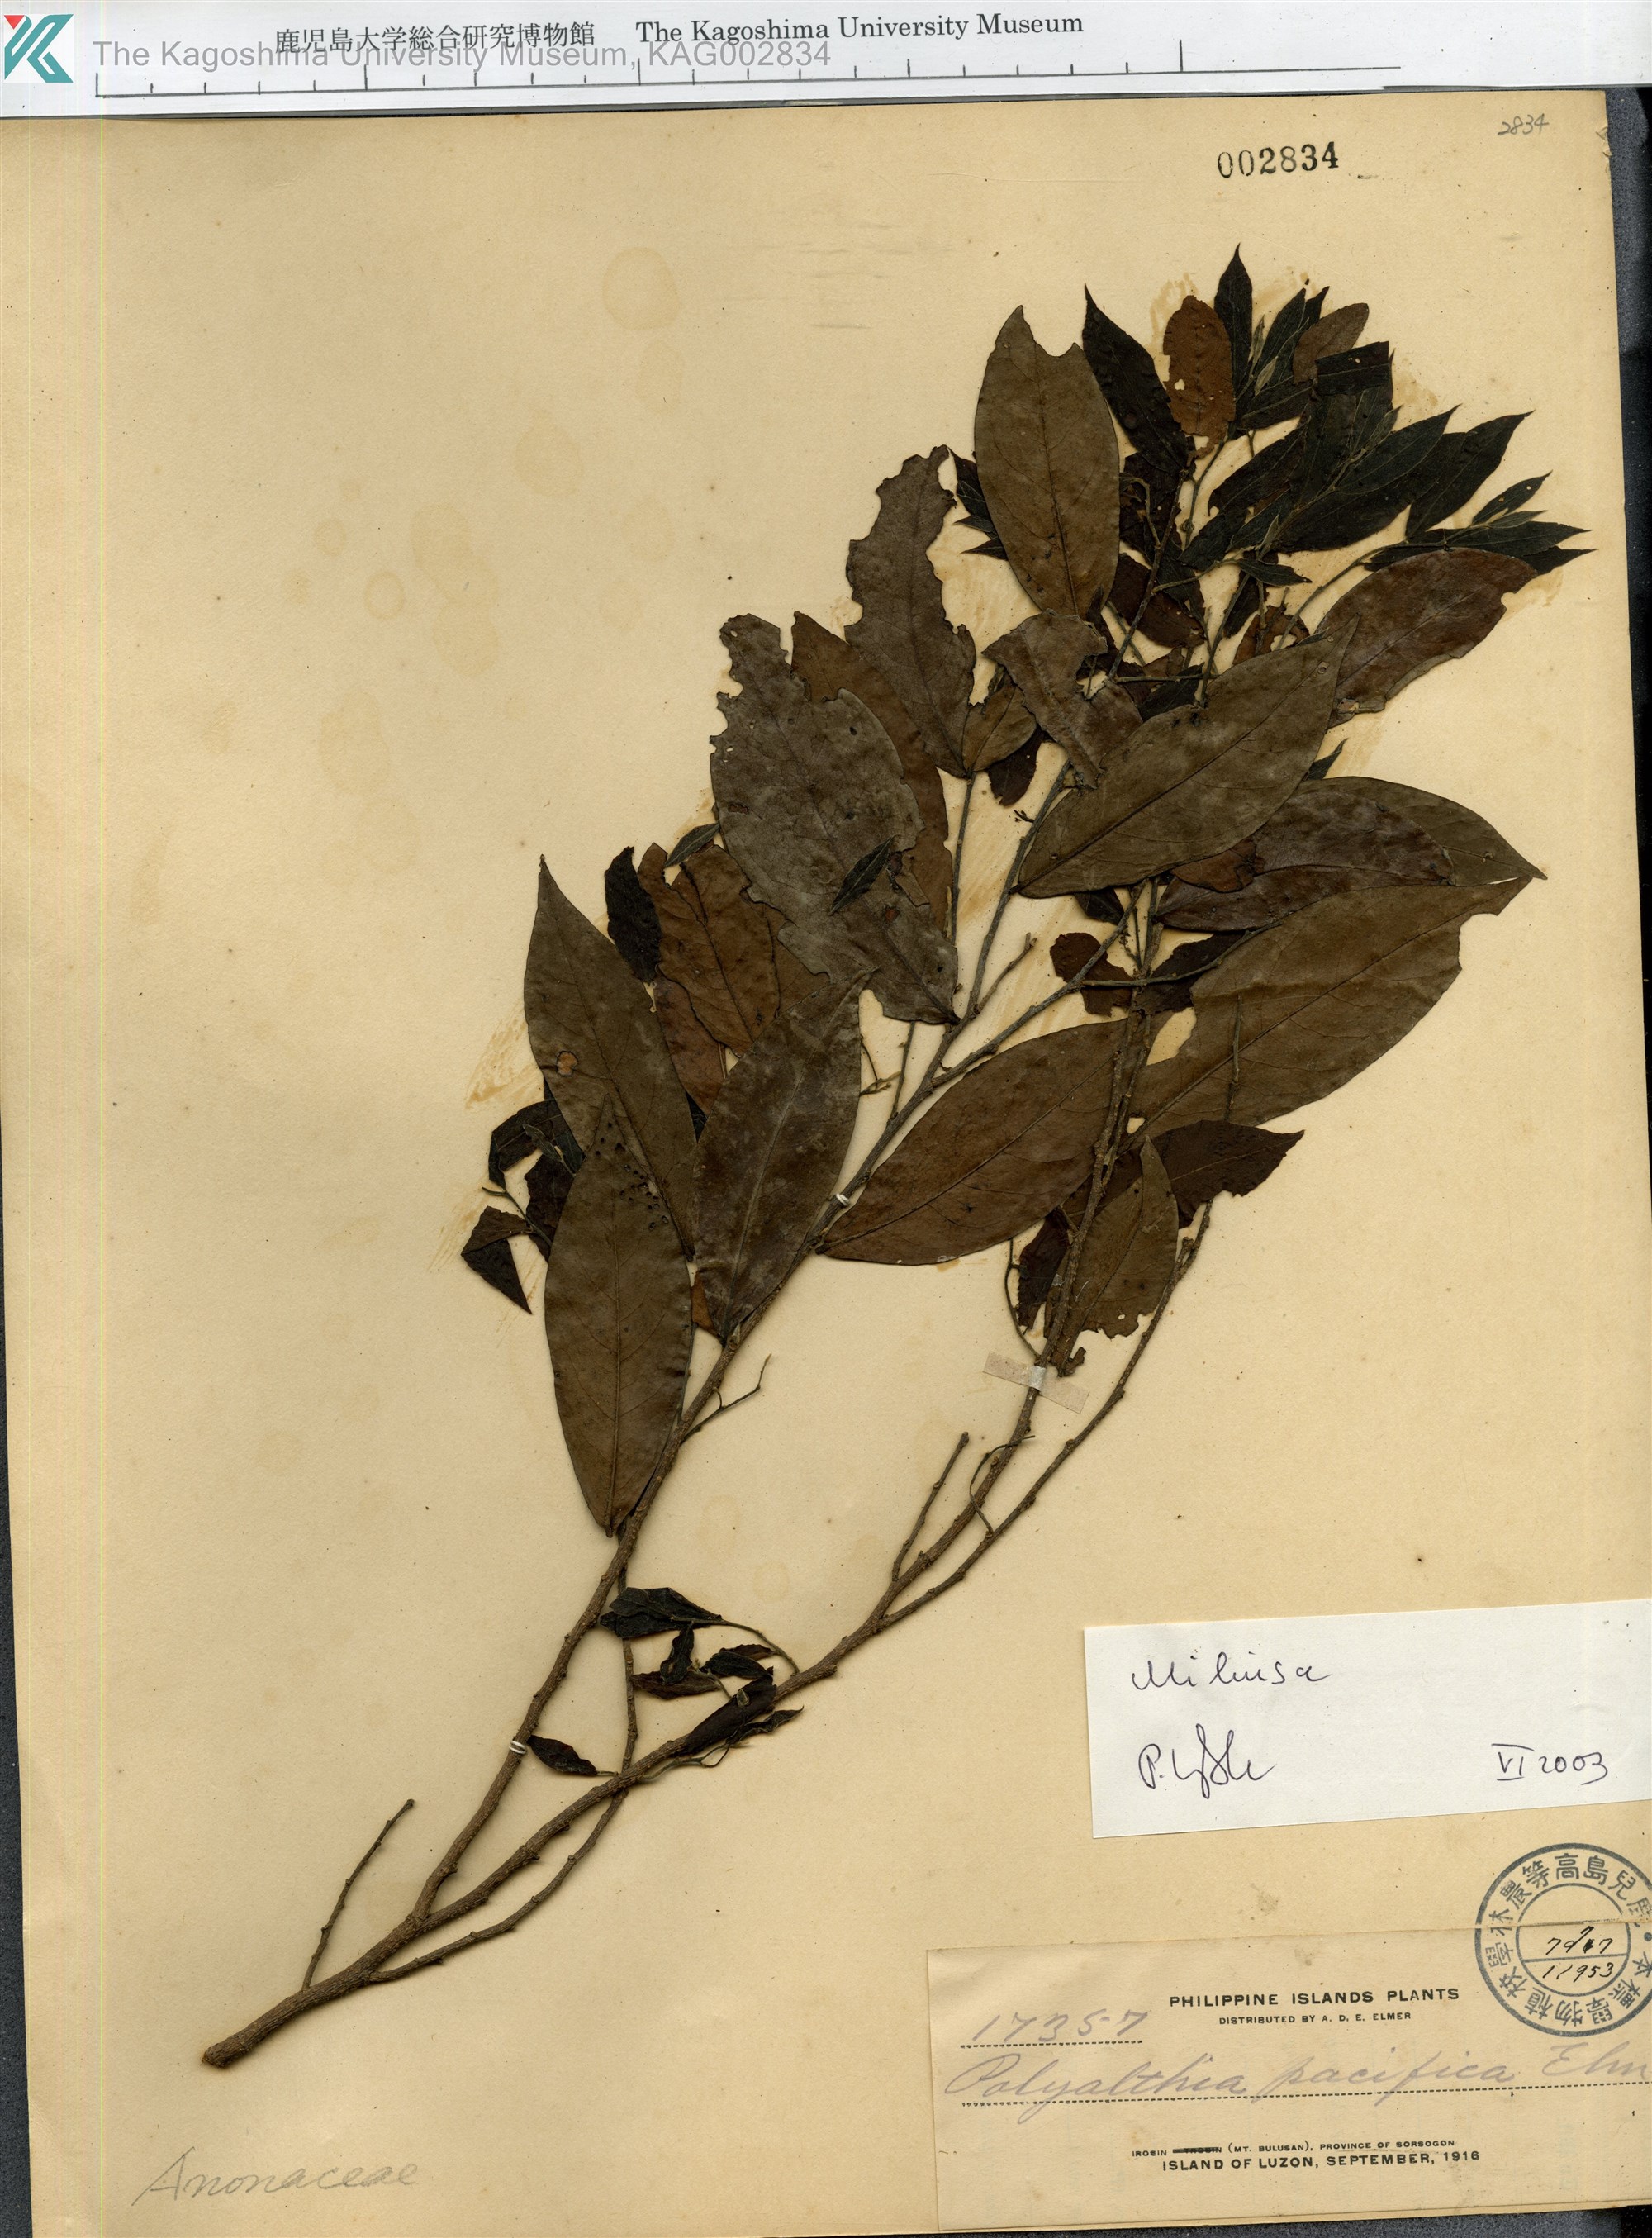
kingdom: Plantae
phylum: Tracheophyta
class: Magnoliopsida
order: Magnoliales
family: Annonaceae
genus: Miliusa
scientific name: Miliusa
